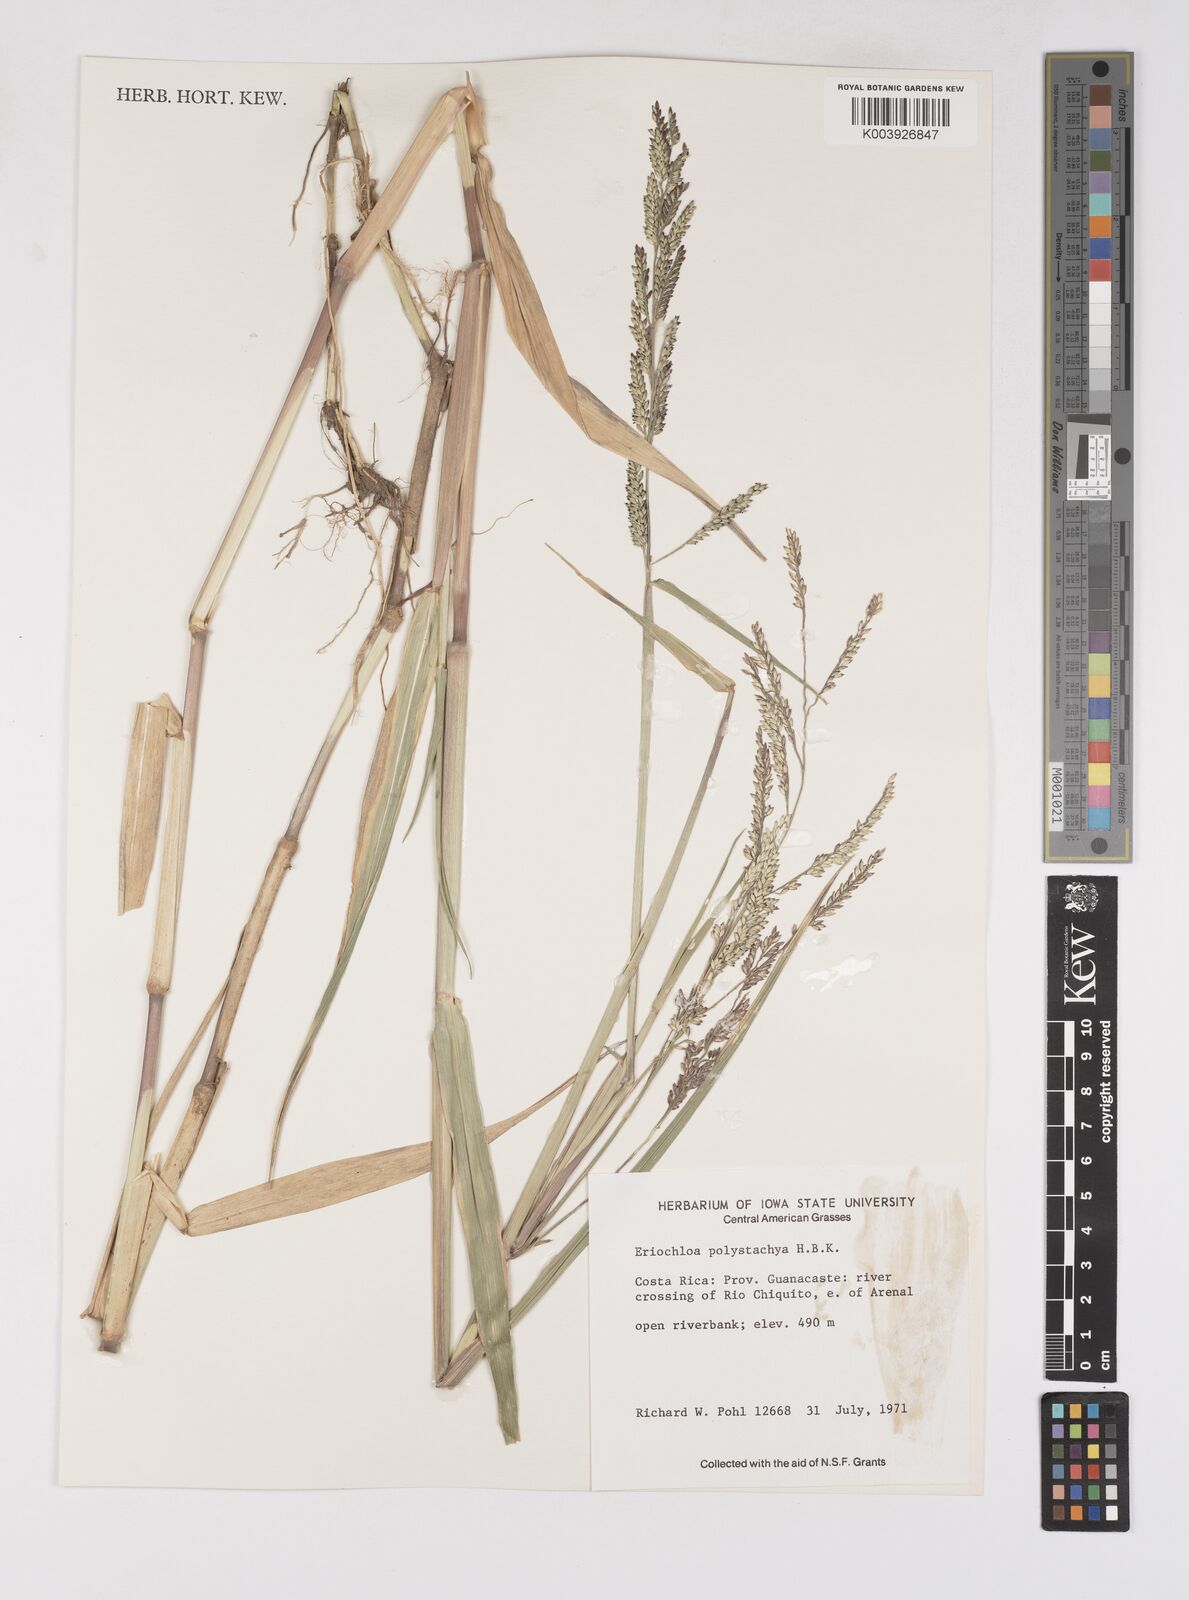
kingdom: Plantae
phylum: Tracheophyta
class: Liliopsida
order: Poales
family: Poaceae
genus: Urochloa
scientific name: Urochloa polystachya
